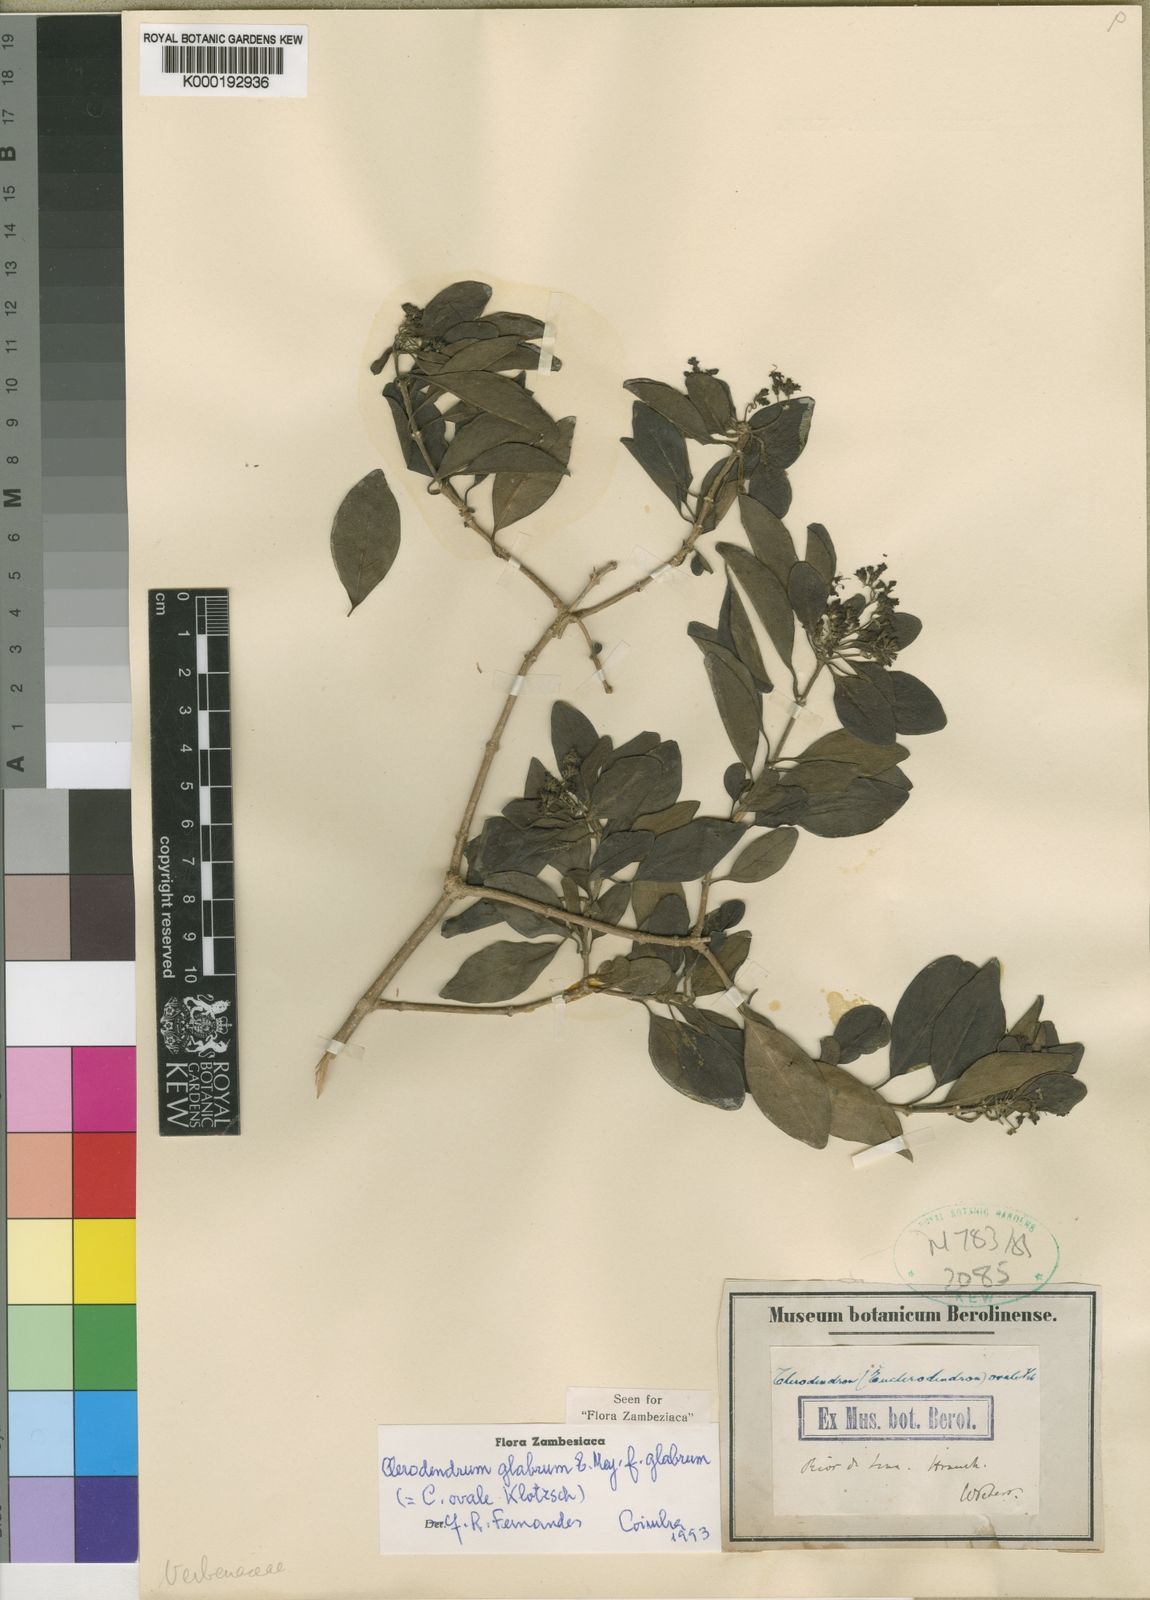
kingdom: Plantae
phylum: Tracheophyta
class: Magnoliopsida
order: Lamiales
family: Lamiaceae
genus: Volkameria
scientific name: Volkameria glabra
